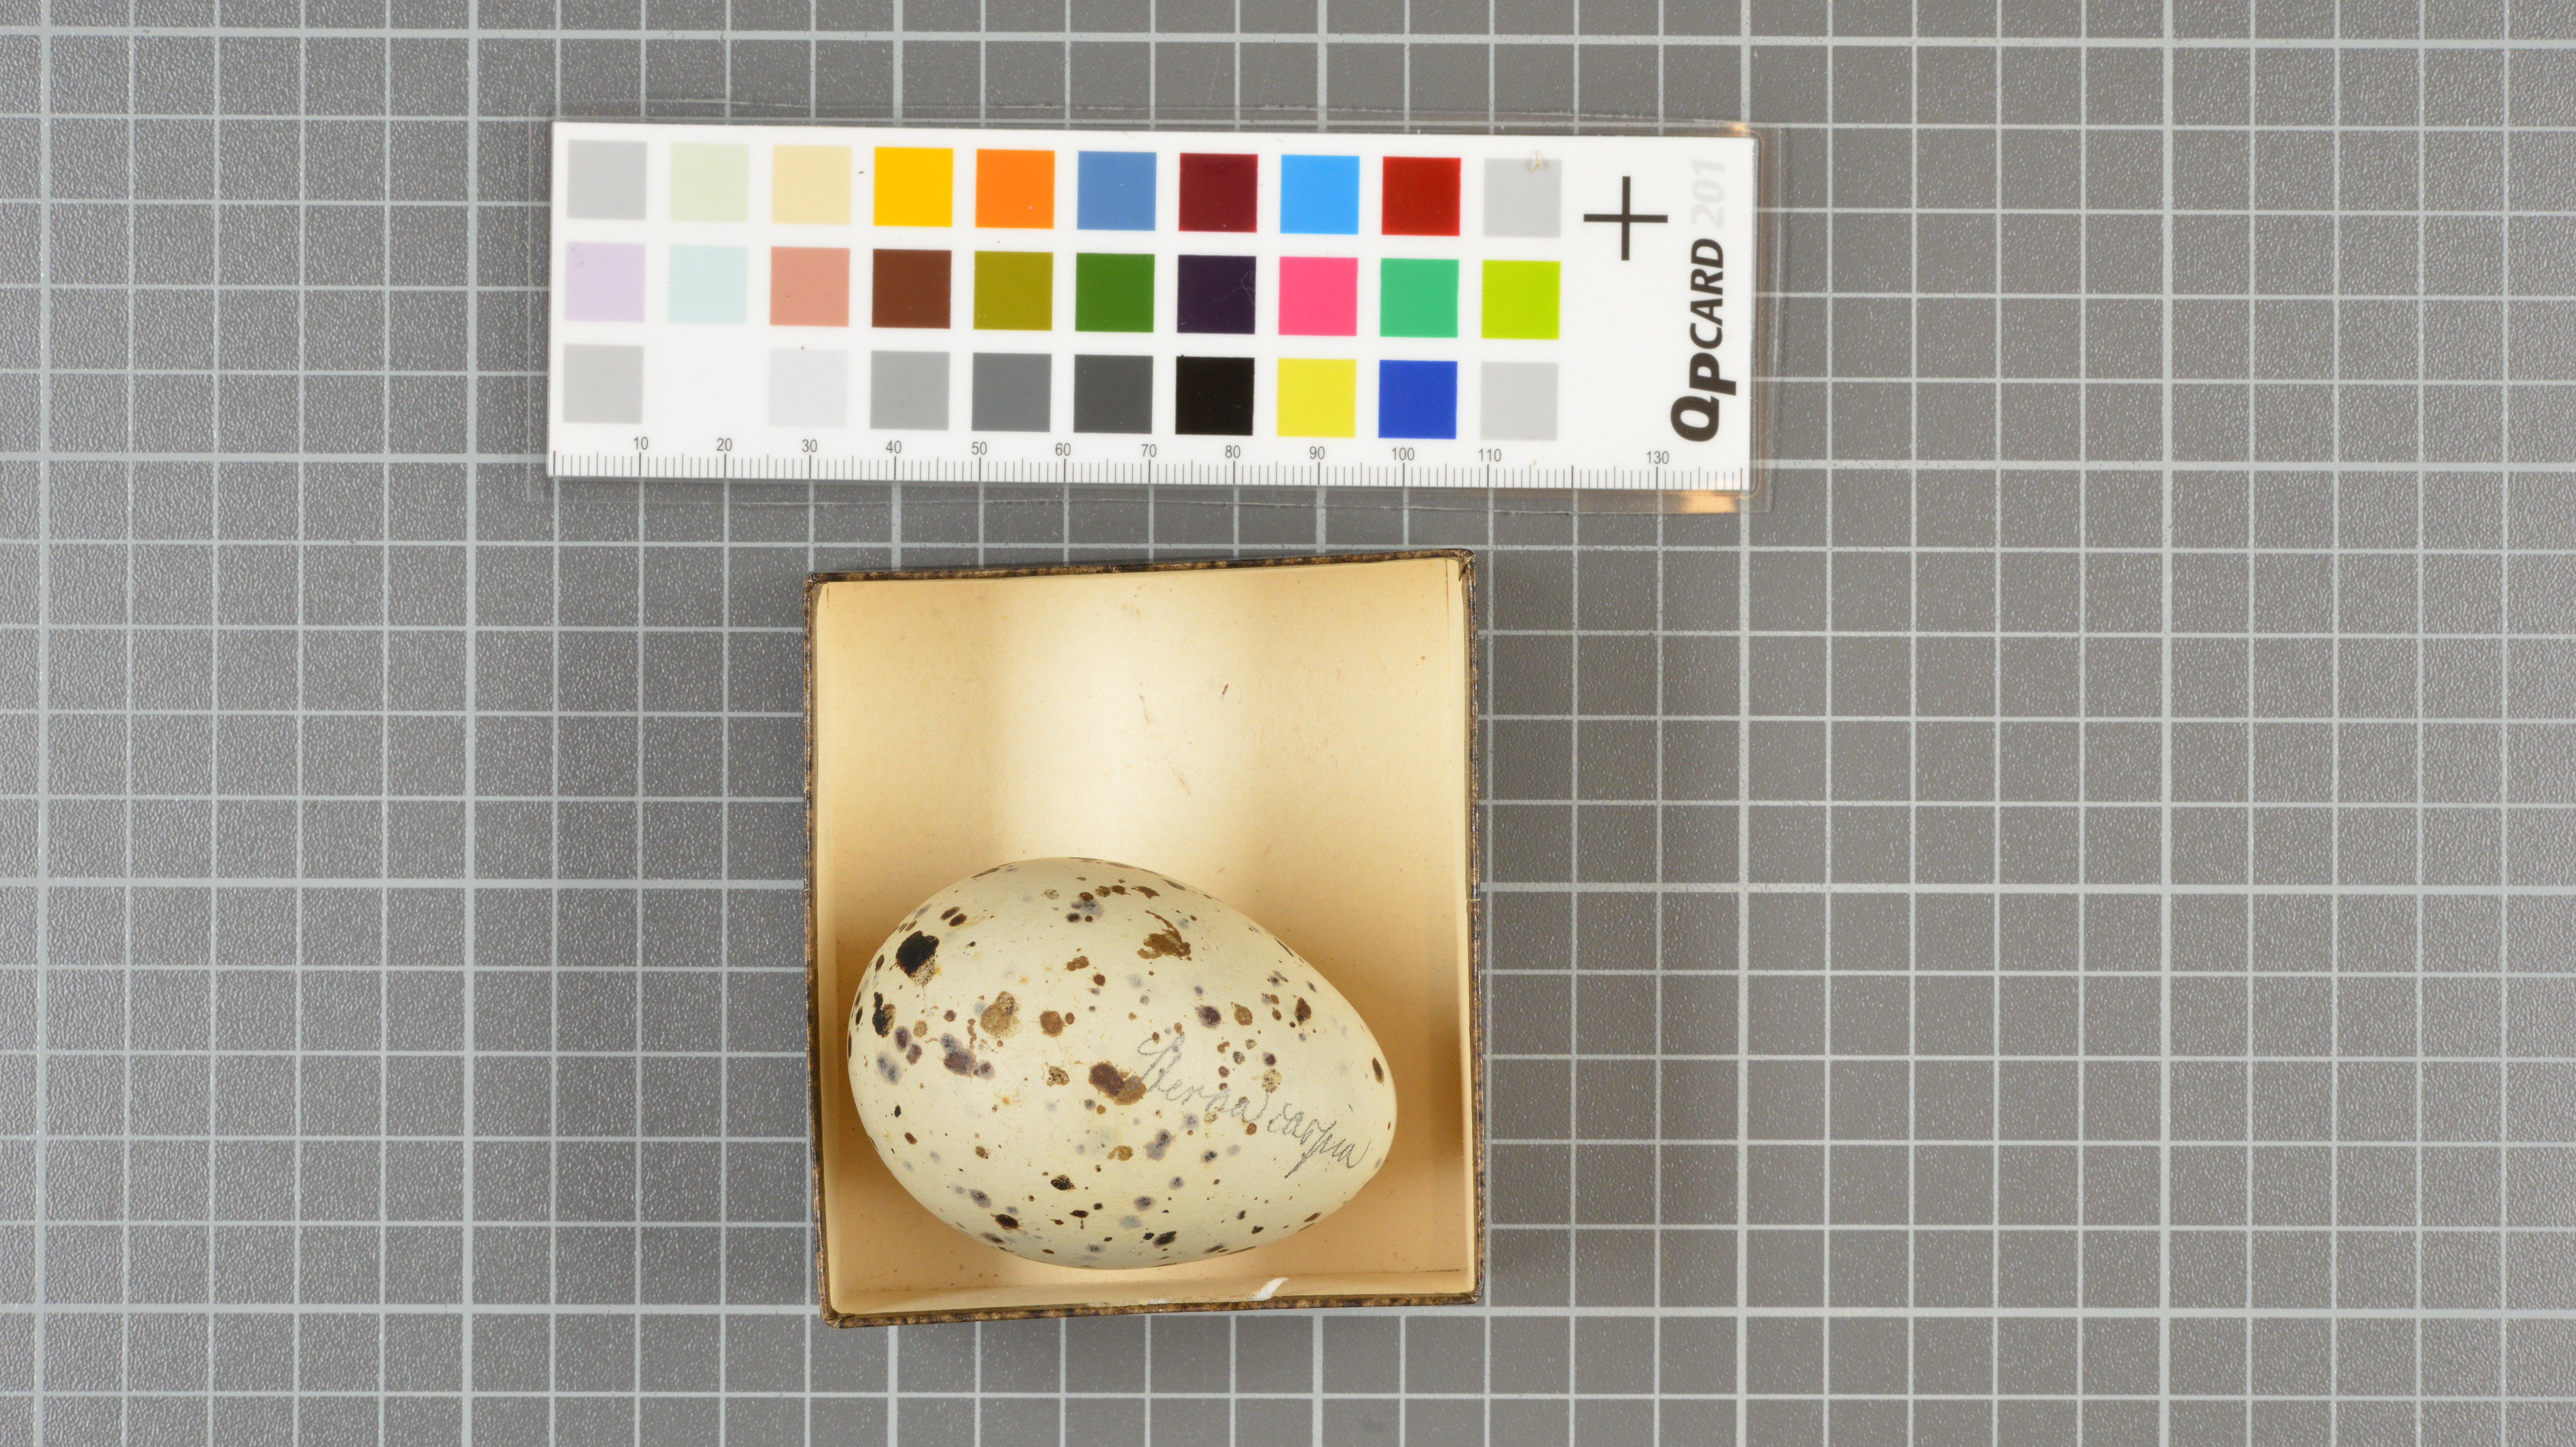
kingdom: Animalia
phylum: Chordata
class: Aves
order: Charadriiformes
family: Laridae
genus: Hydroprogne
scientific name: Hydroprogne caspia
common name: Caspian tern
